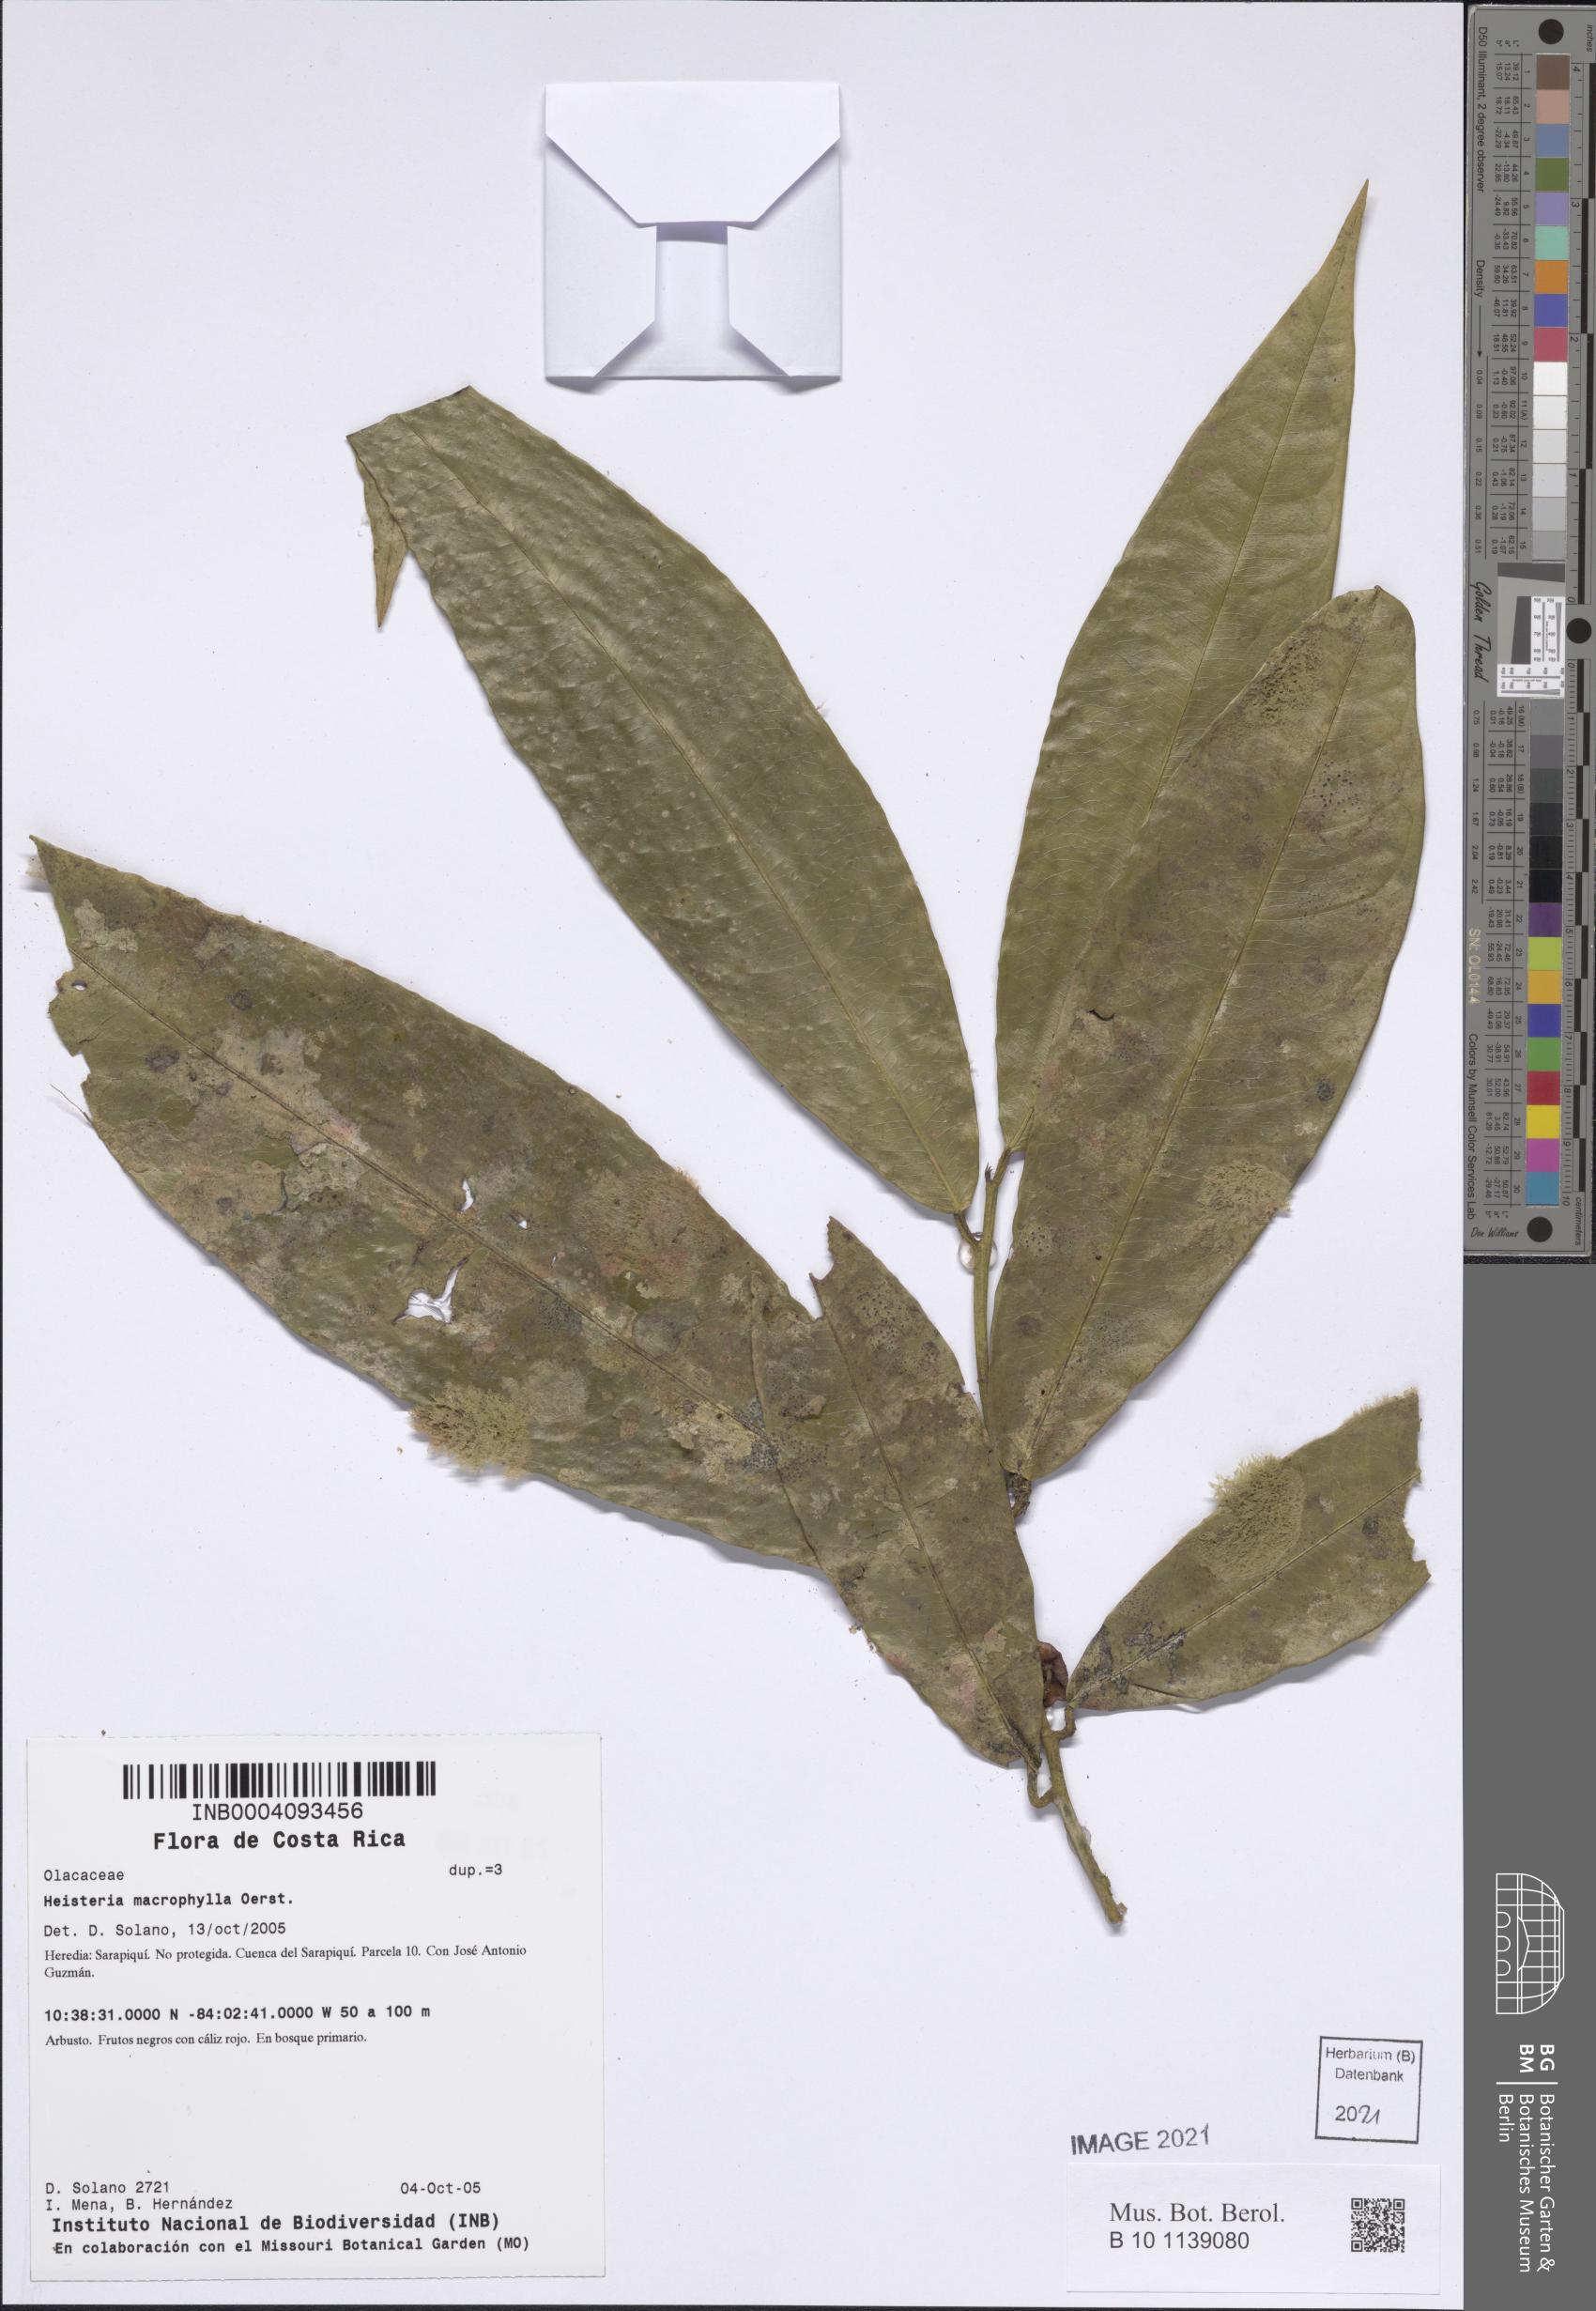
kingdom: Plantae
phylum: Tracheophyta
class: Magnoliopsida
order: Santalales
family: Erythropalaceae
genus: Heisteria
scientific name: Heisteria macrophylla
